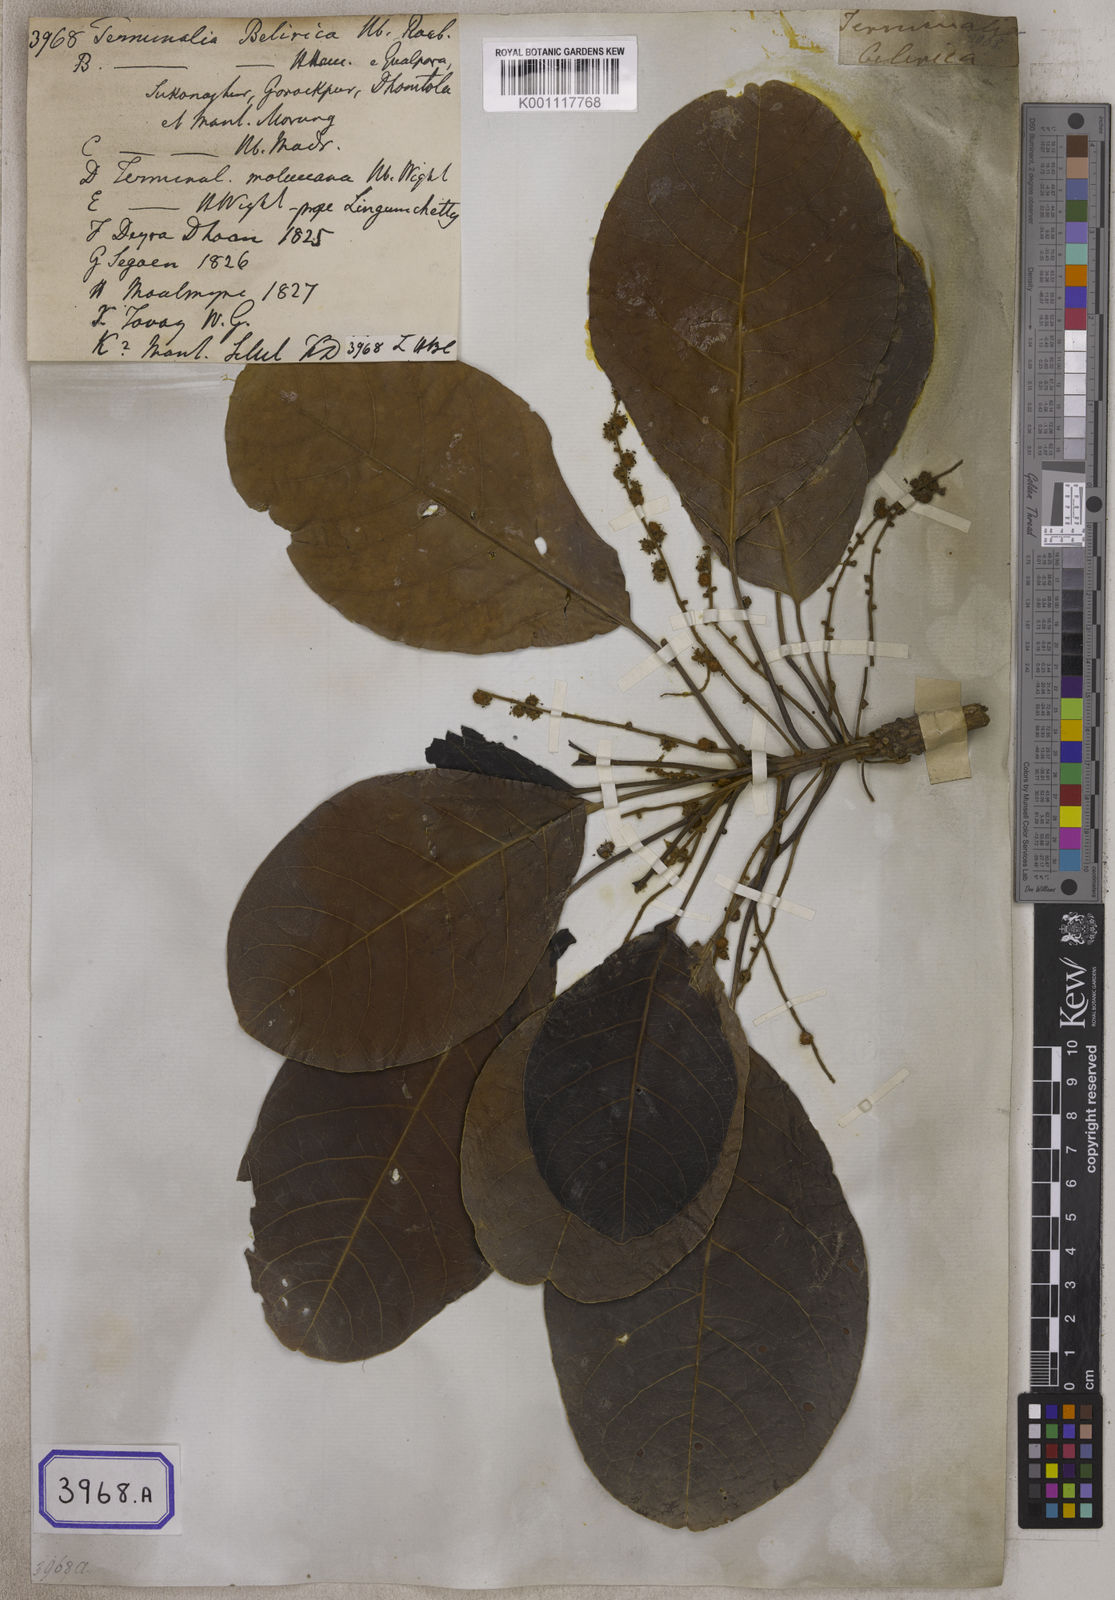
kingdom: Plantae
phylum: Tracheophyta
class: Magnoliopsida
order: Myrtales
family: Combretaceae
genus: Terminalia
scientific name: Terminalia bellirica
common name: Beleric myrobalan
